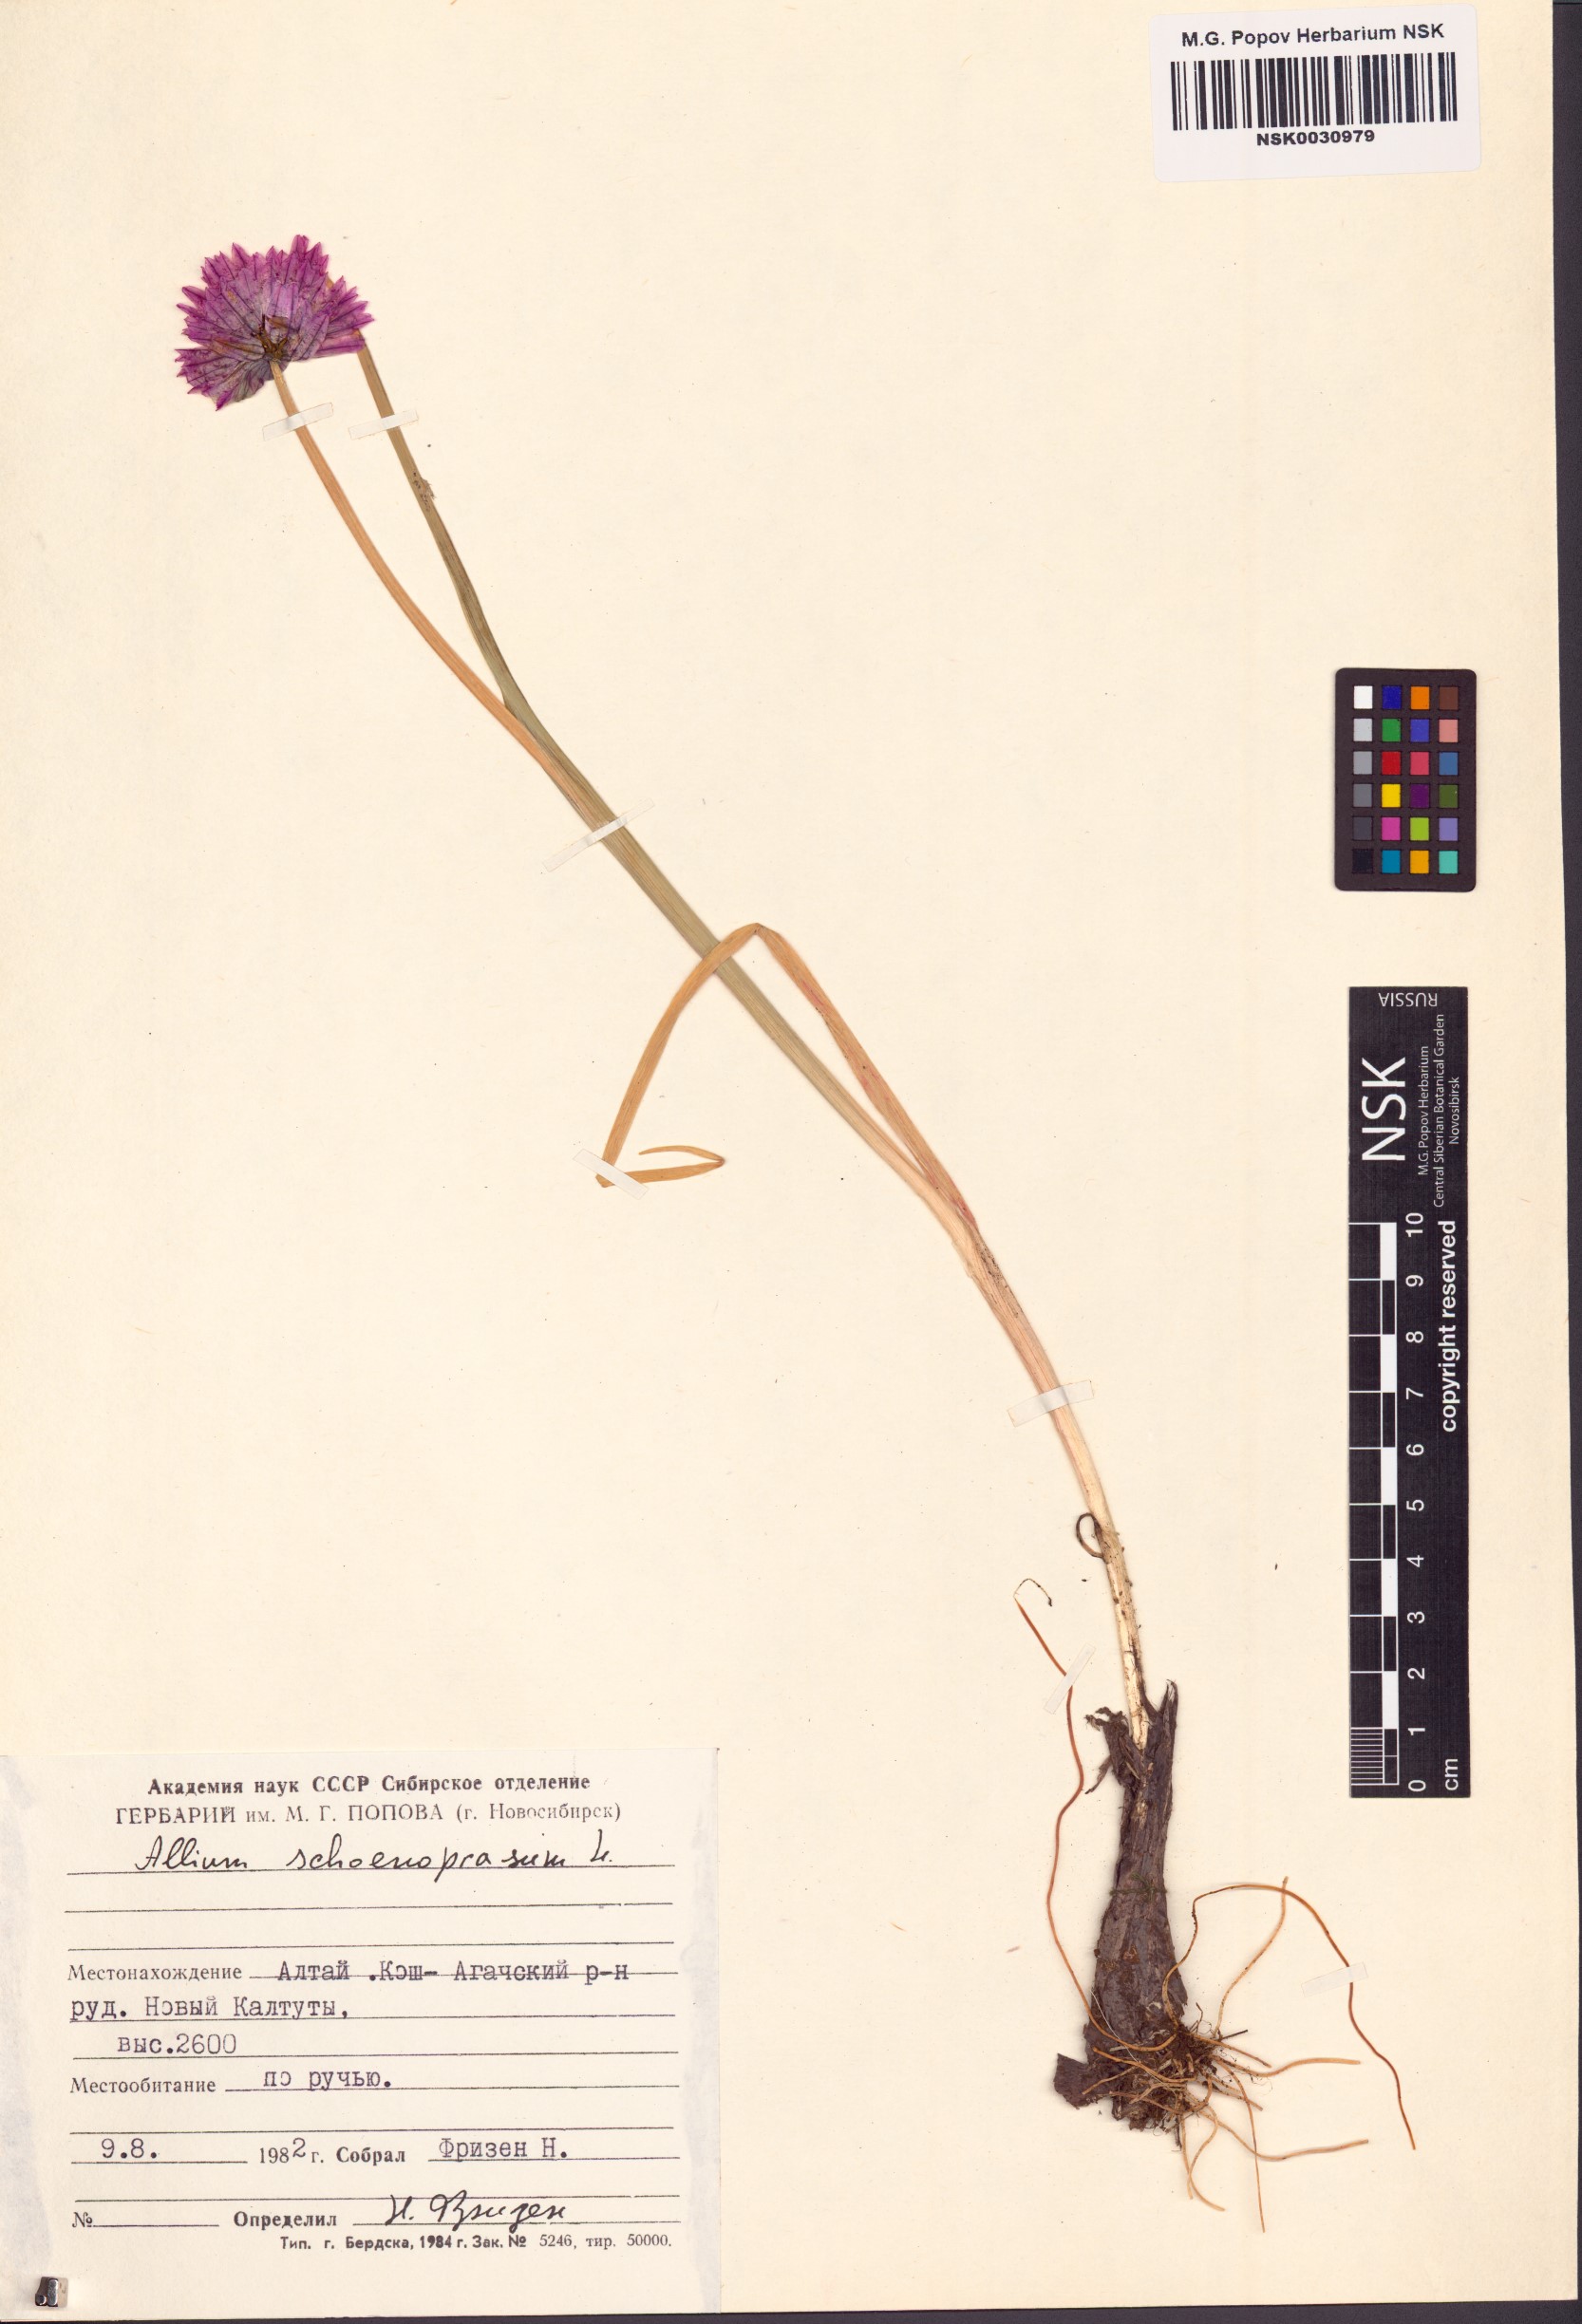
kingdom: Plantae
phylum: Tracheophyta
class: Liliopsida
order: Asparagales
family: Amaryllidaceae
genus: Allium
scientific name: Allium schoenoprasum
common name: Chives
